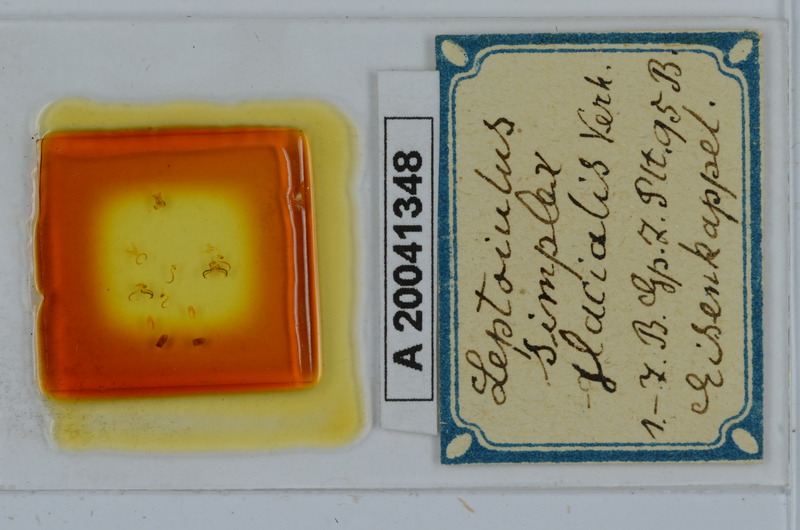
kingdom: Animalia
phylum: Arthropoda
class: Diplopoda
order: Julida
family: Julidae
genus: Leptoiulus
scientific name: Leptoiulus simplex
